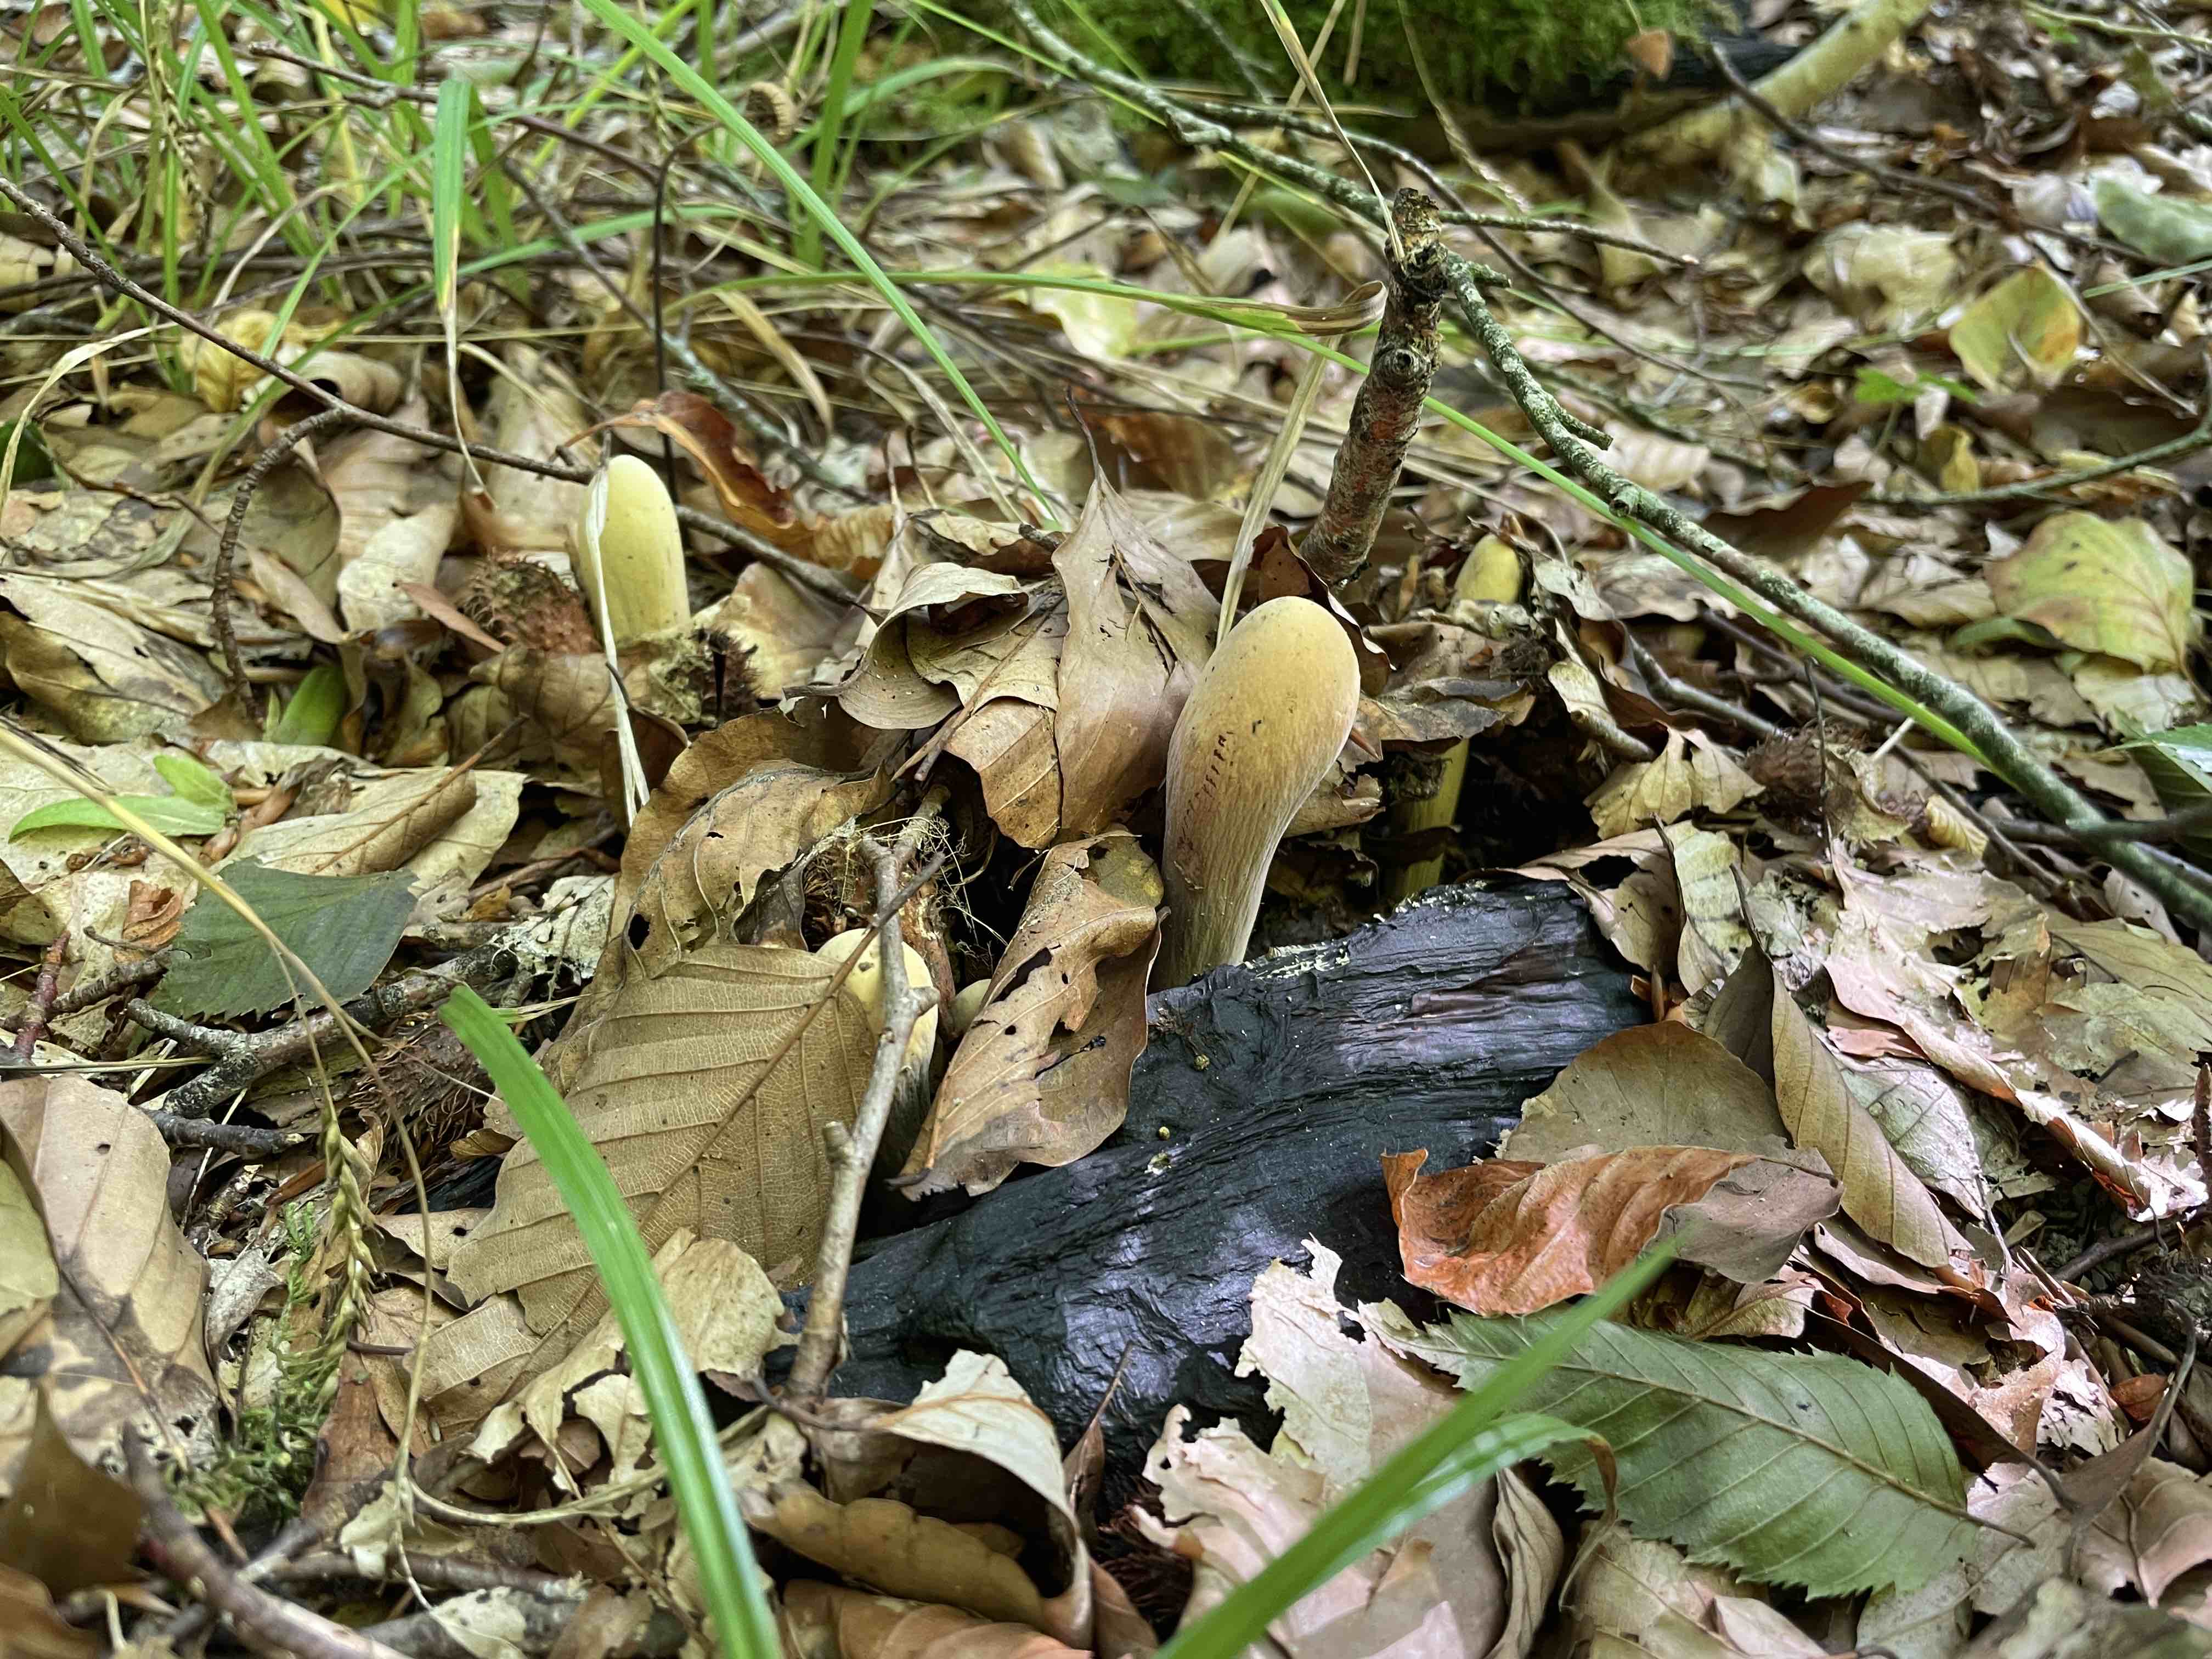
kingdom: Fungi
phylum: Basidiomycota
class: Agaricomycetes
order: Gomphales
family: Clavariadelphaceae
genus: Clavariadelphus
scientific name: Clavariadelphus pistillaris
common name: herkules-kæmpekølle
